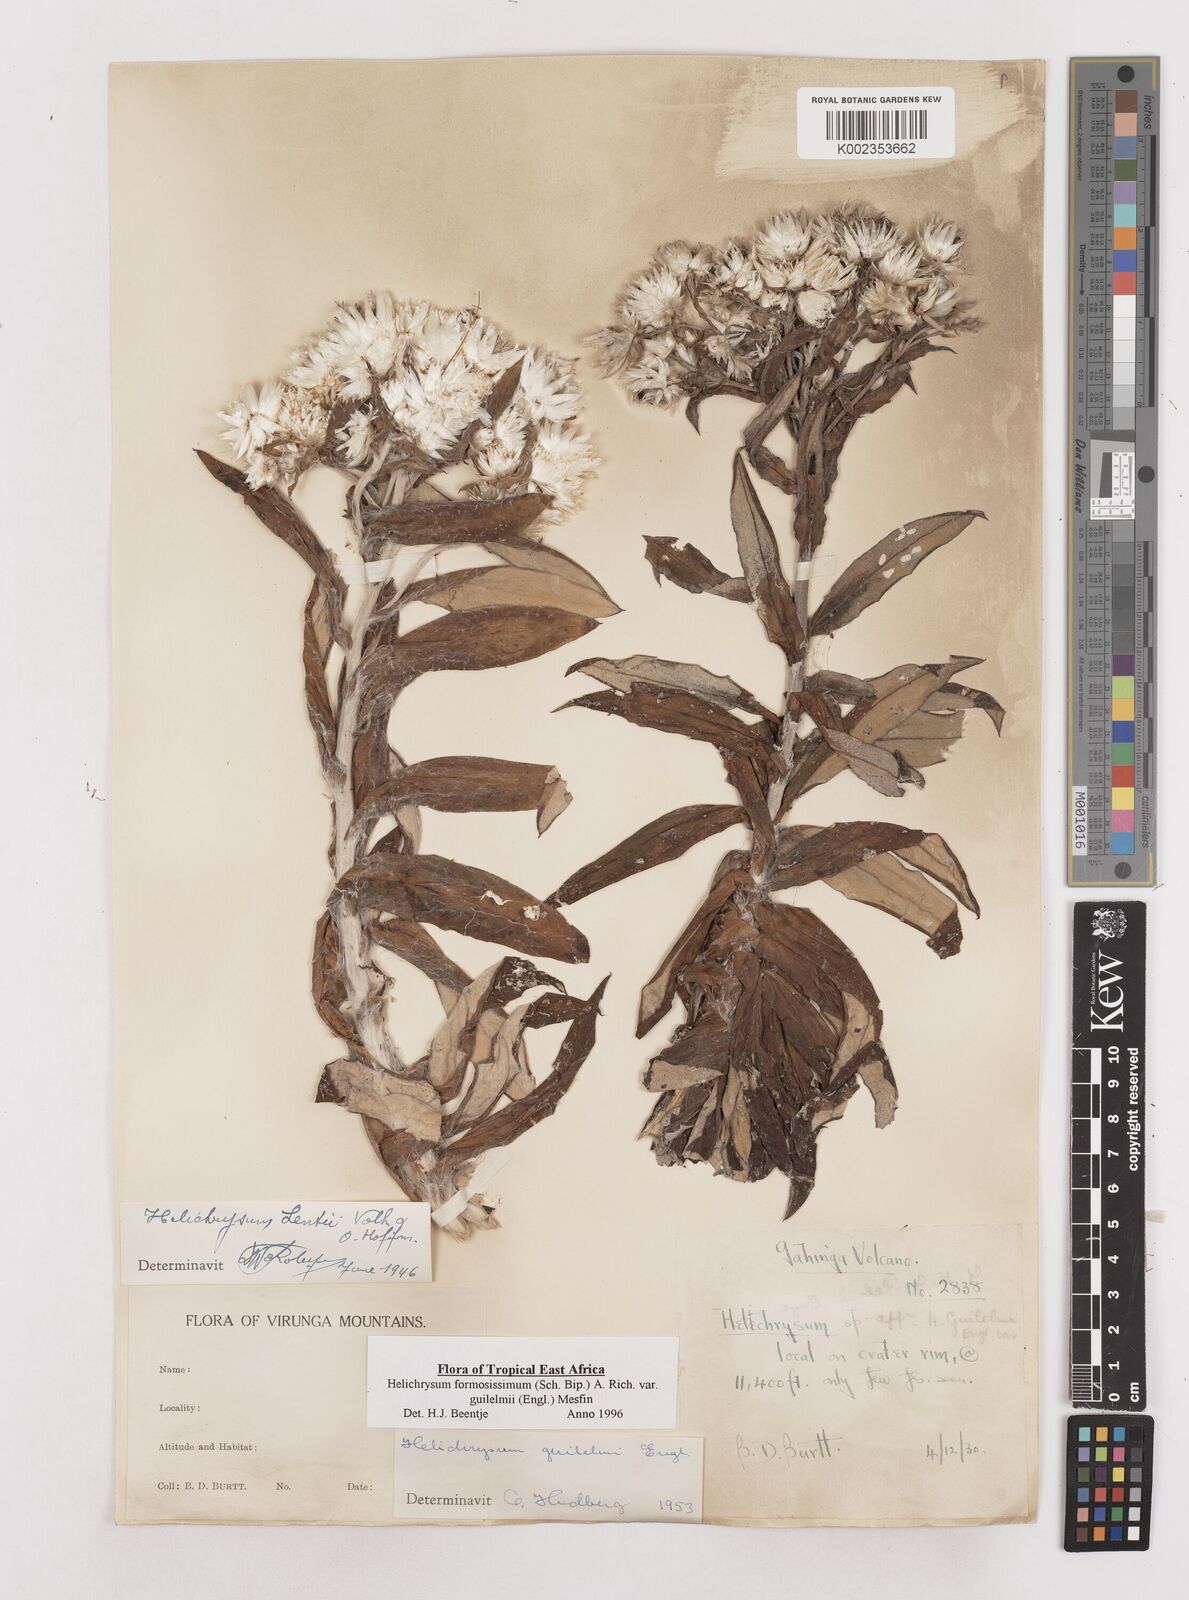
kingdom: Plantae
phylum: Tracheophyta
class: Magnoliopsida
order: Asterales
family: Asteraceae
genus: Helichrysum
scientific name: Helichrysum formosissimum
